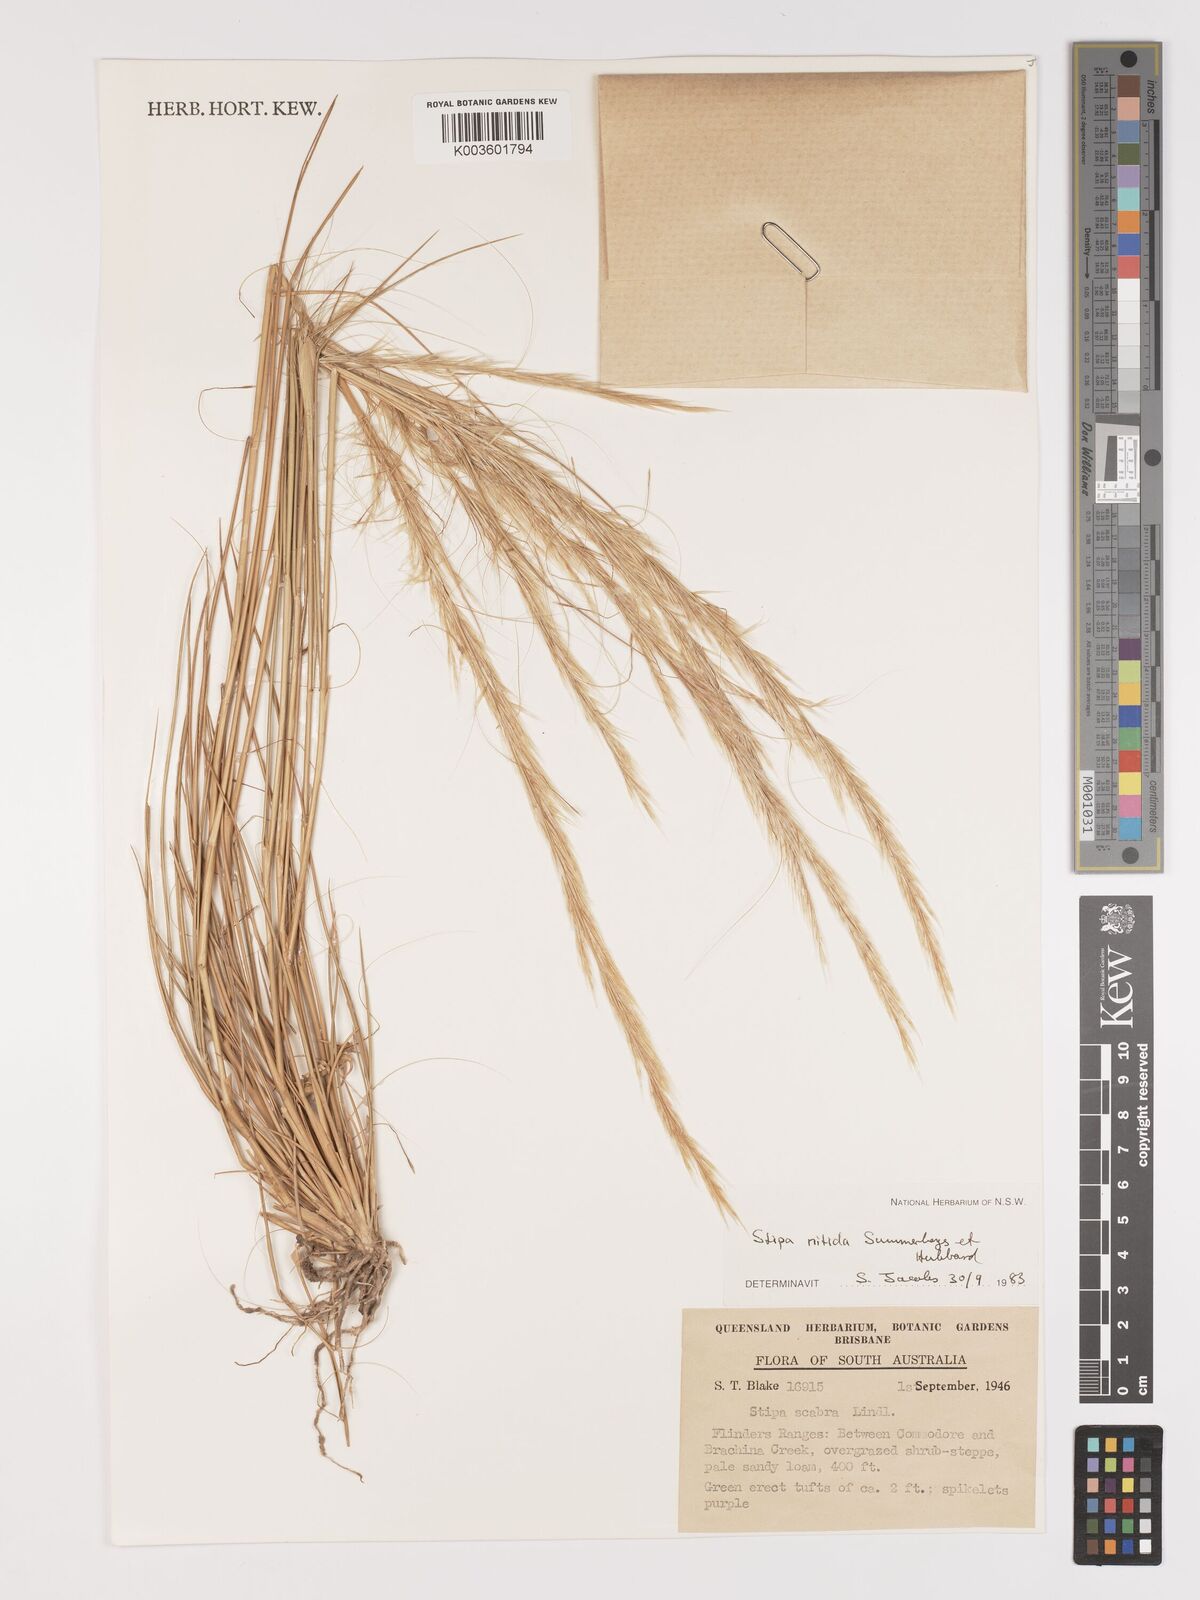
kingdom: Plantae
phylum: Tracheophyta
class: Liliopsida
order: Poales
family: Poaceae
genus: Austrostipa
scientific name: Austrostipa nitida
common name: Balcarra grass
